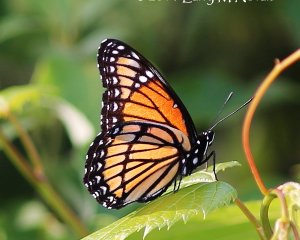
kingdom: Animalia
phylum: Arthropoda
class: Insecta
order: Lepidoptera
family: Nymphalidae
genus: Limenitis
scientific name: Limenitis archippus
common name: Viceroy
